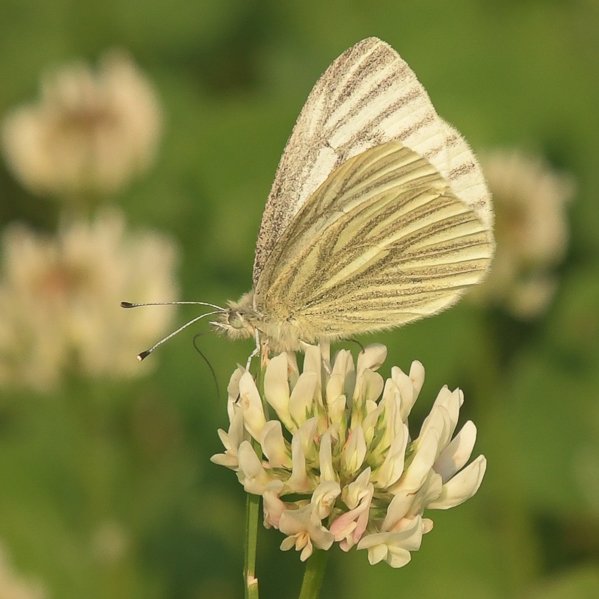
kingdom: Animalia
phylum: Arthropoda
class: Insecta
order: Lepidoptera
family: Pieridae
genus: Pieris
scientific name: Pieris marginalis
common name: Margined White
